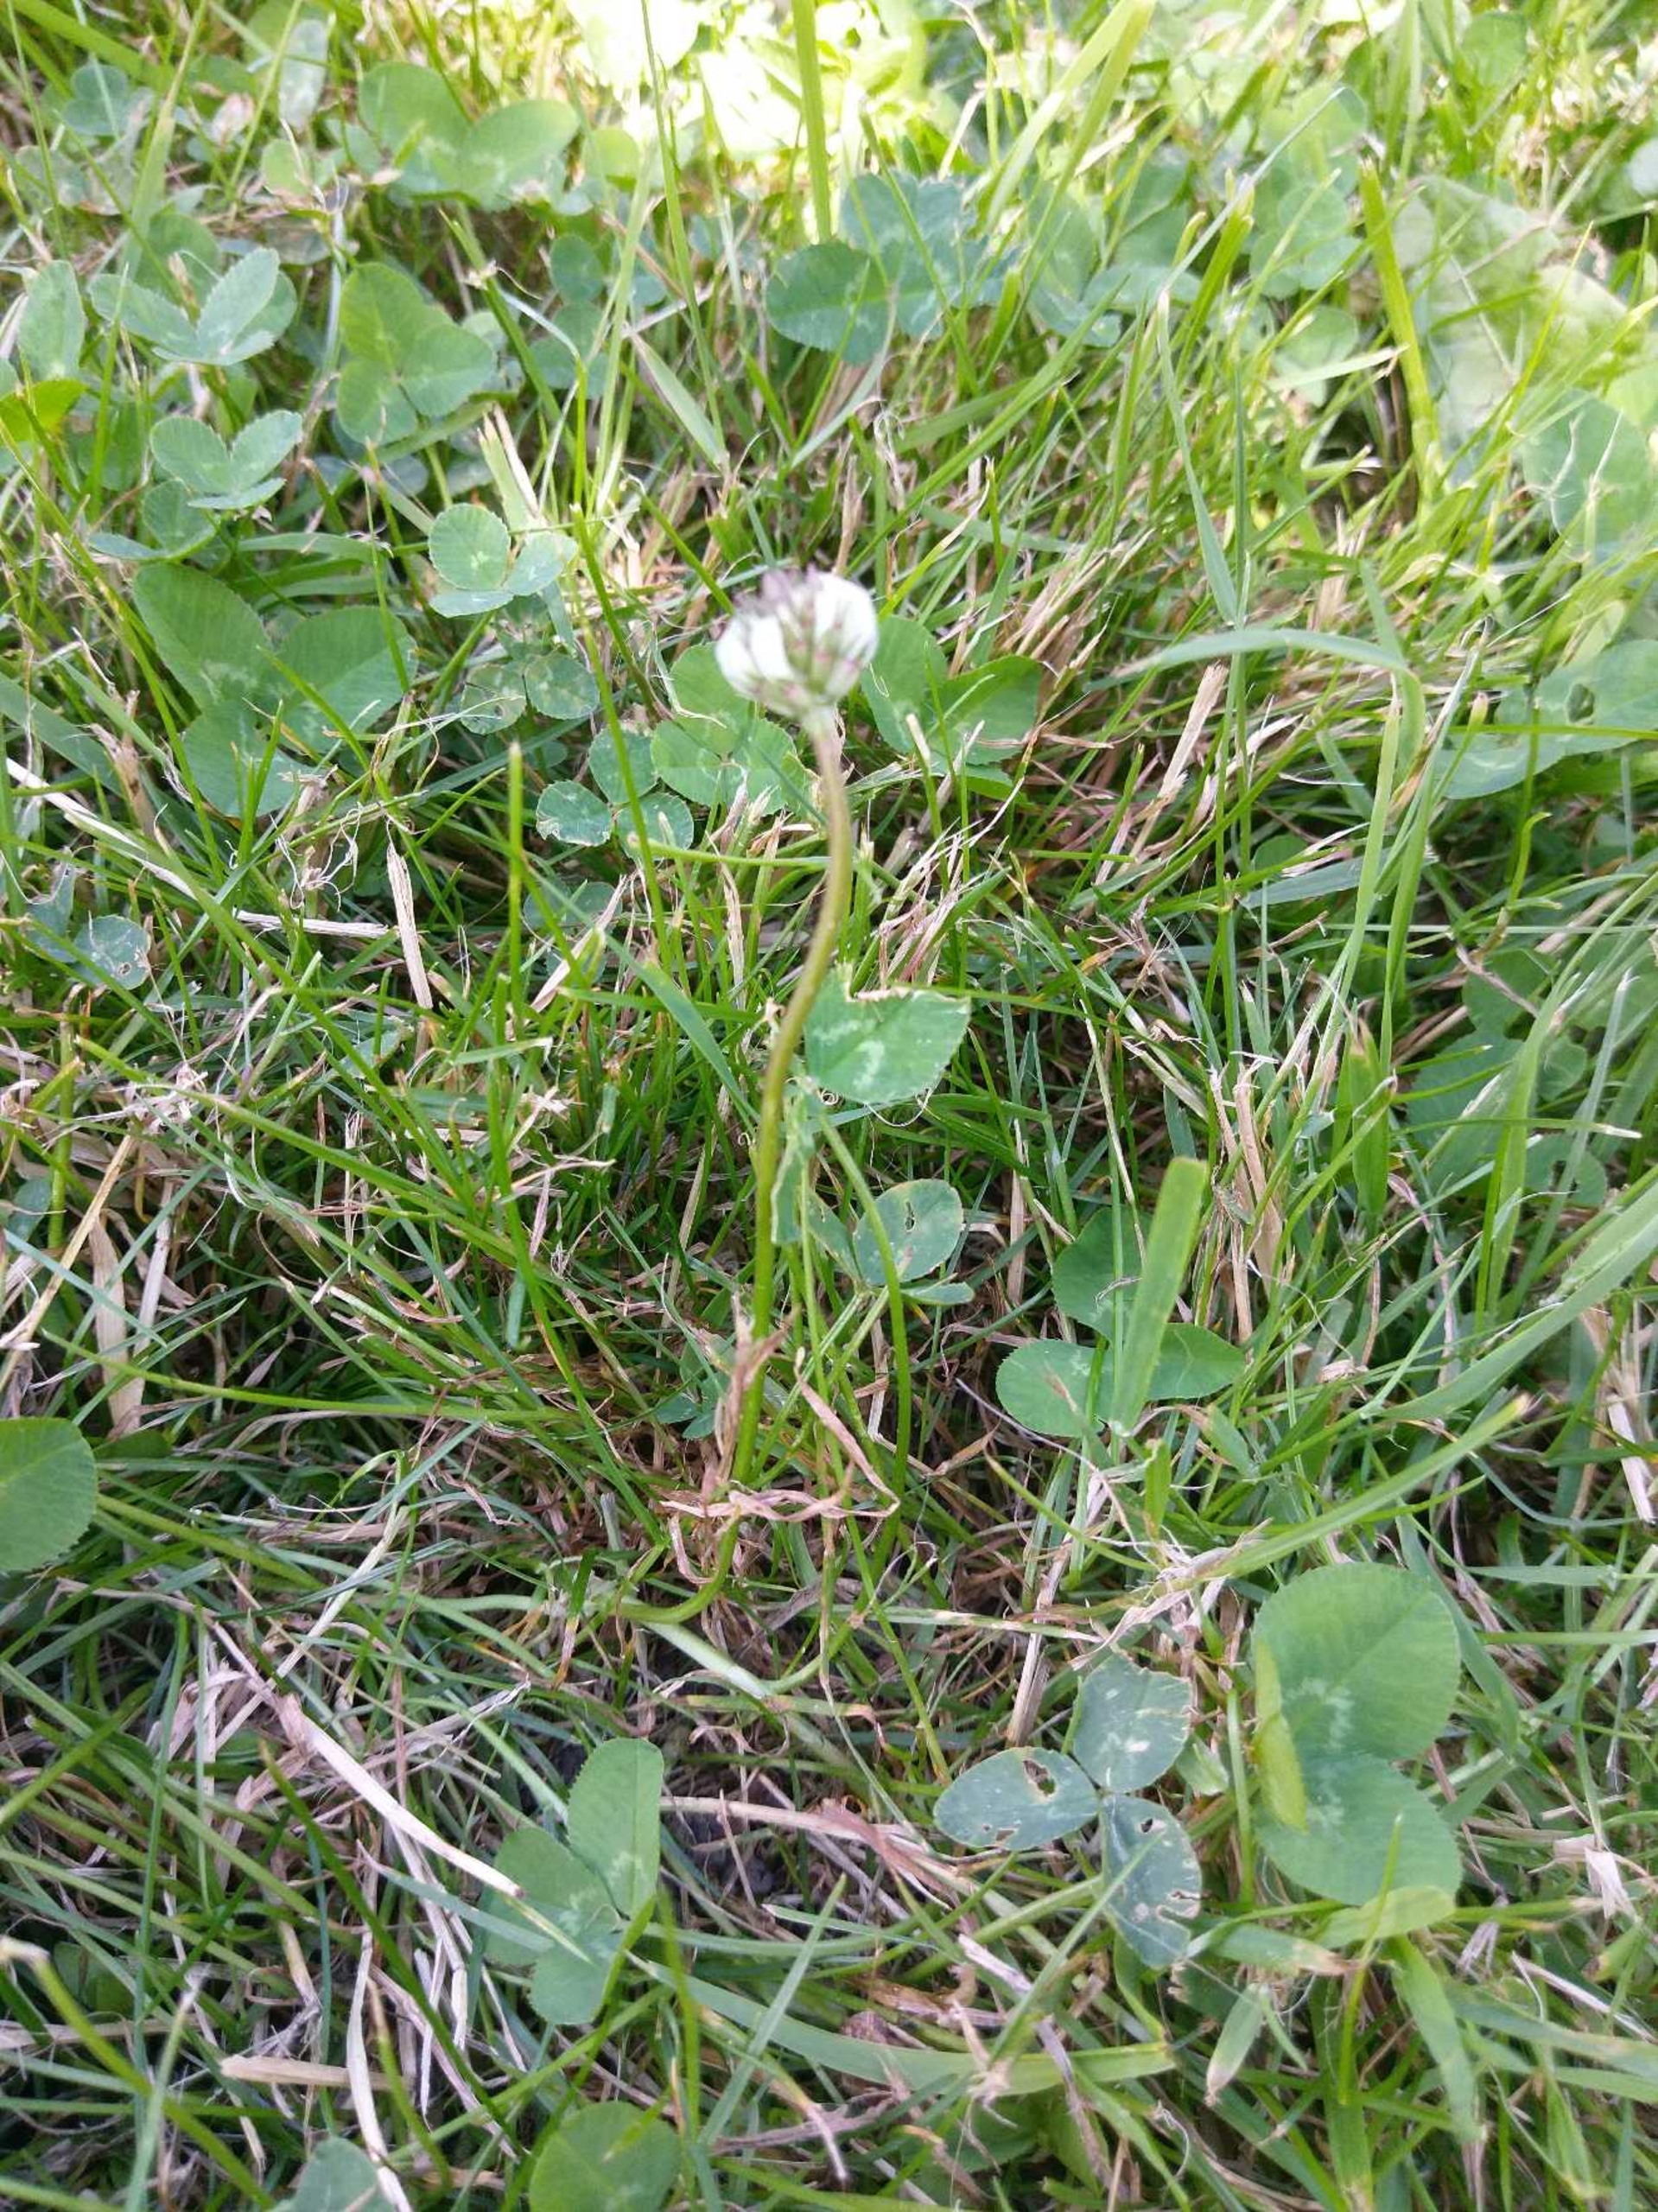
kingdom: Plantae
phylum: Tracheophyta
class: Magnoliopsida
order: Fabales
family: Fabaceae
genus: Trifolium
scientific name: Trifolium repens
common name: Hvid-kløver
